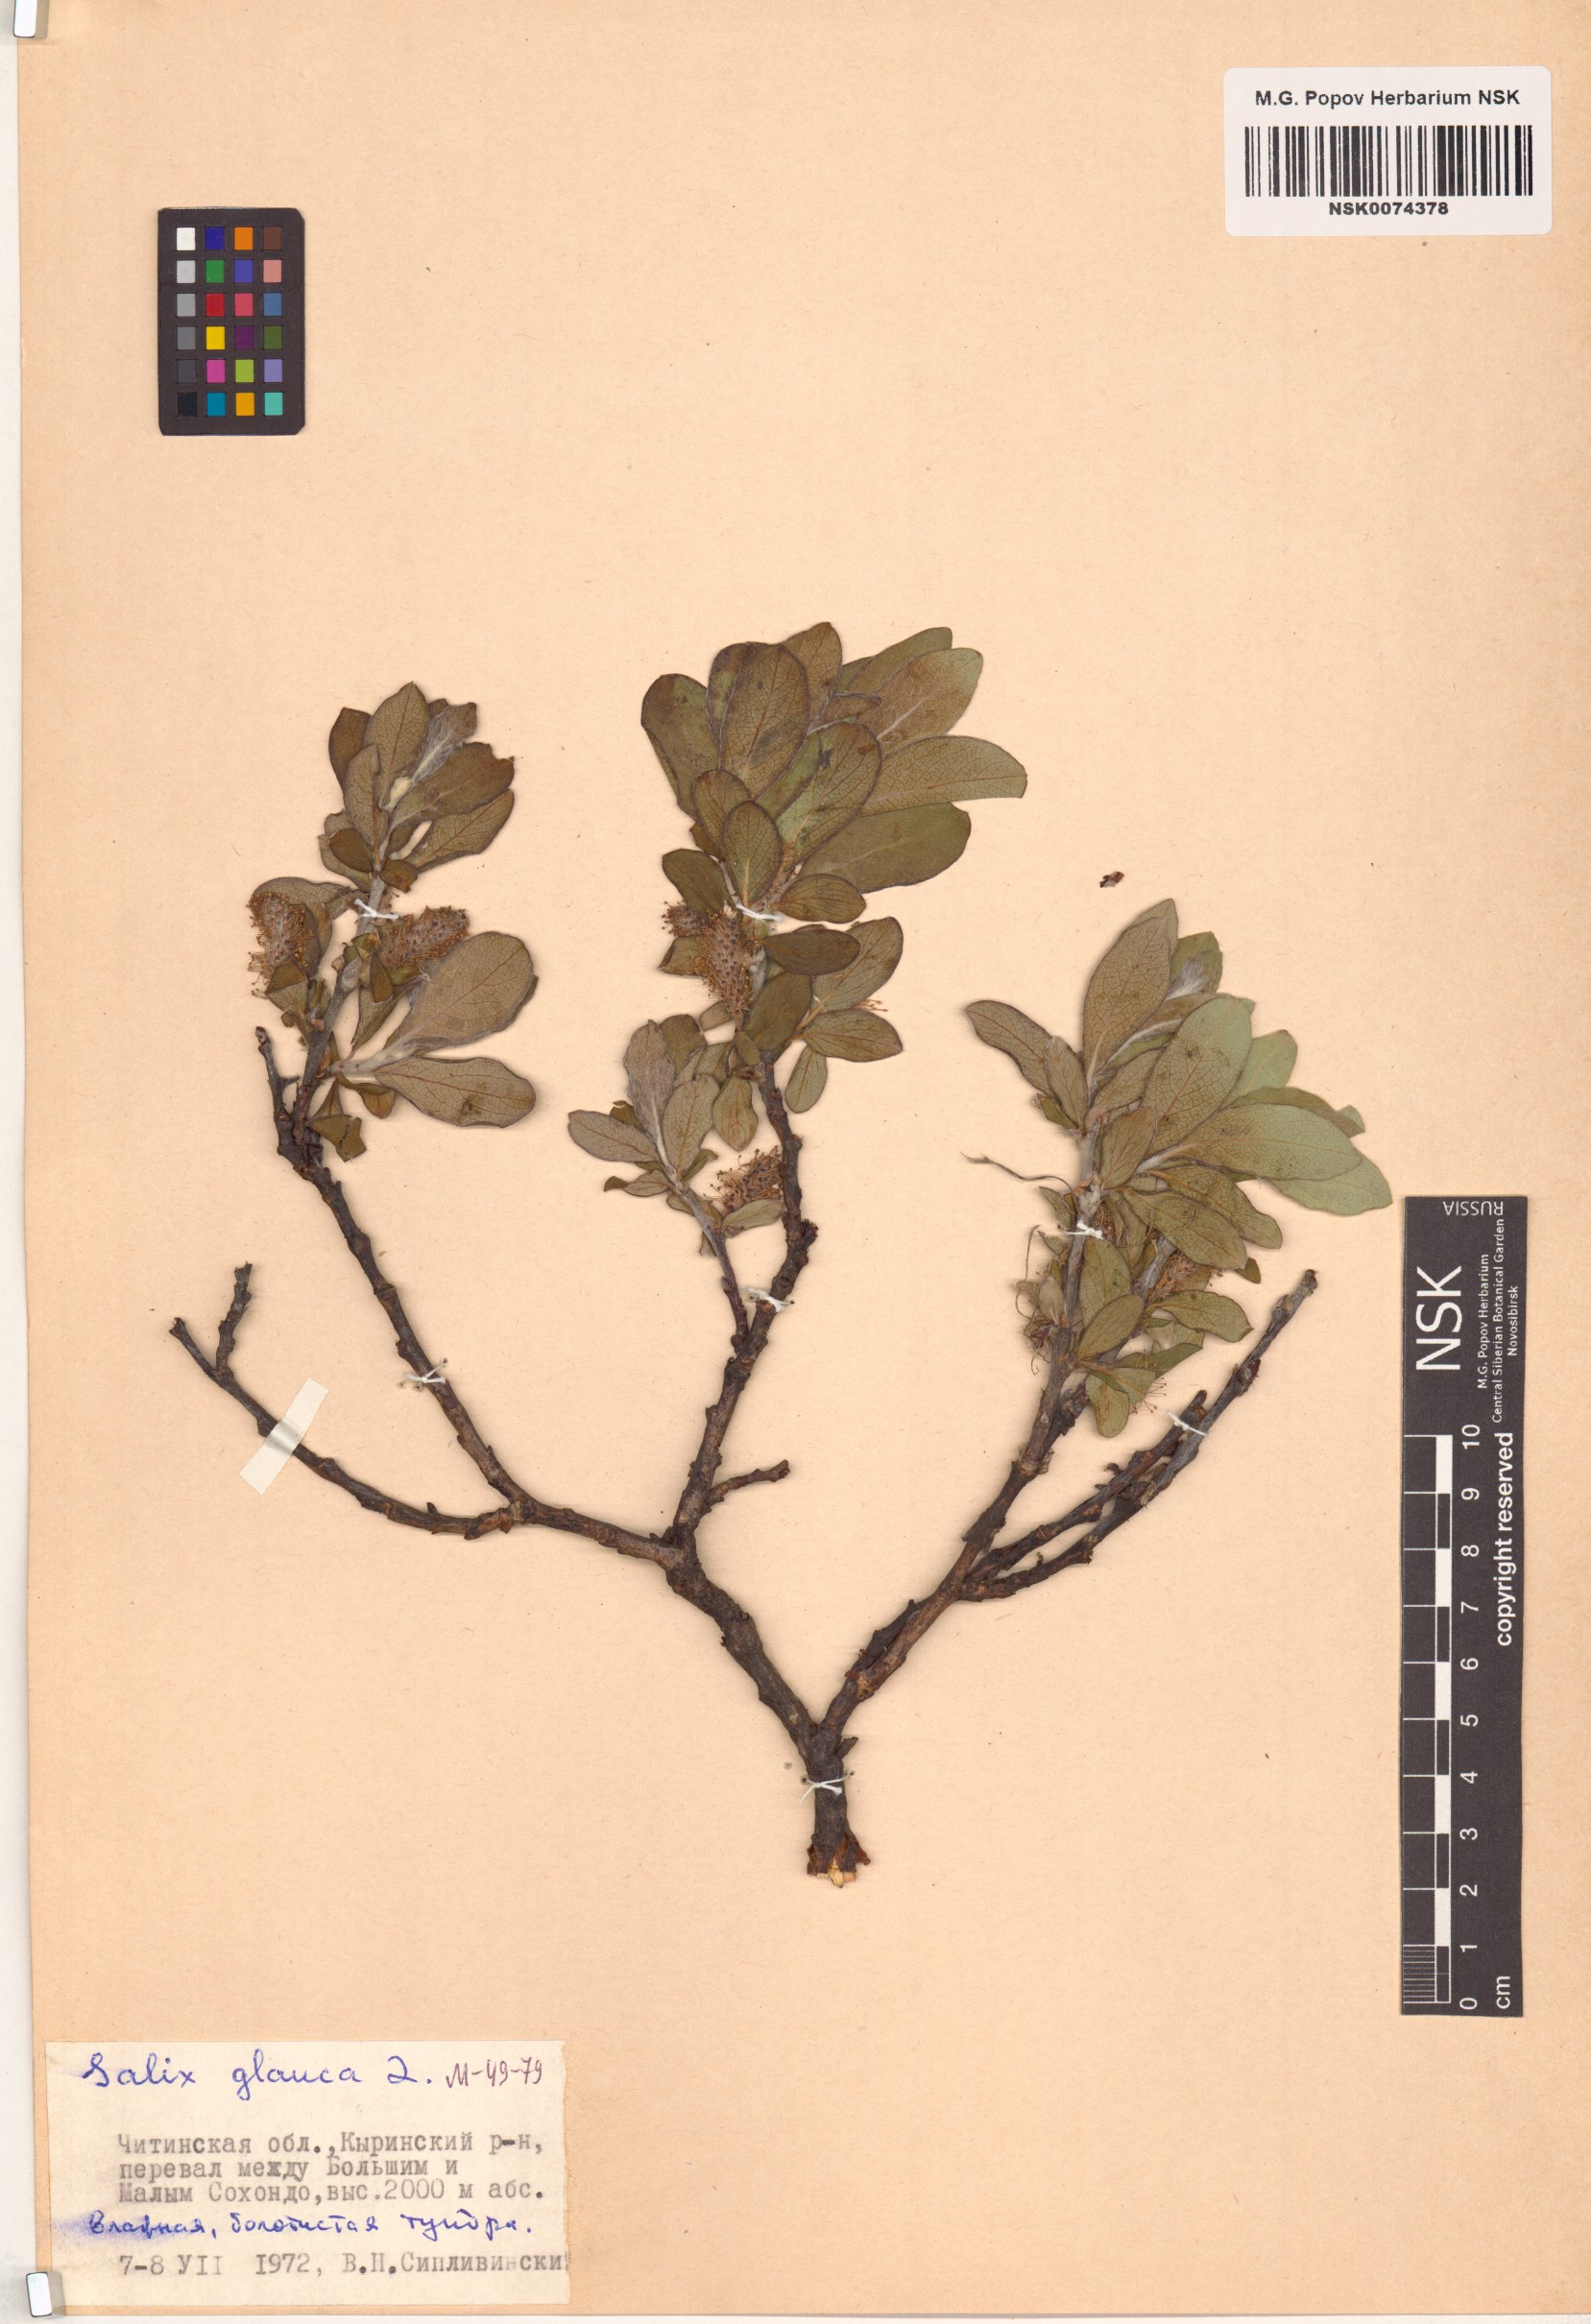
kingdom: Plantae
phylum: Tracheophyta
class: Magnoliopsida
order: Malpighiales
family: Salicaceae
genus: Salix
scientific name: Salix glauca
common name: Glaucous willow
